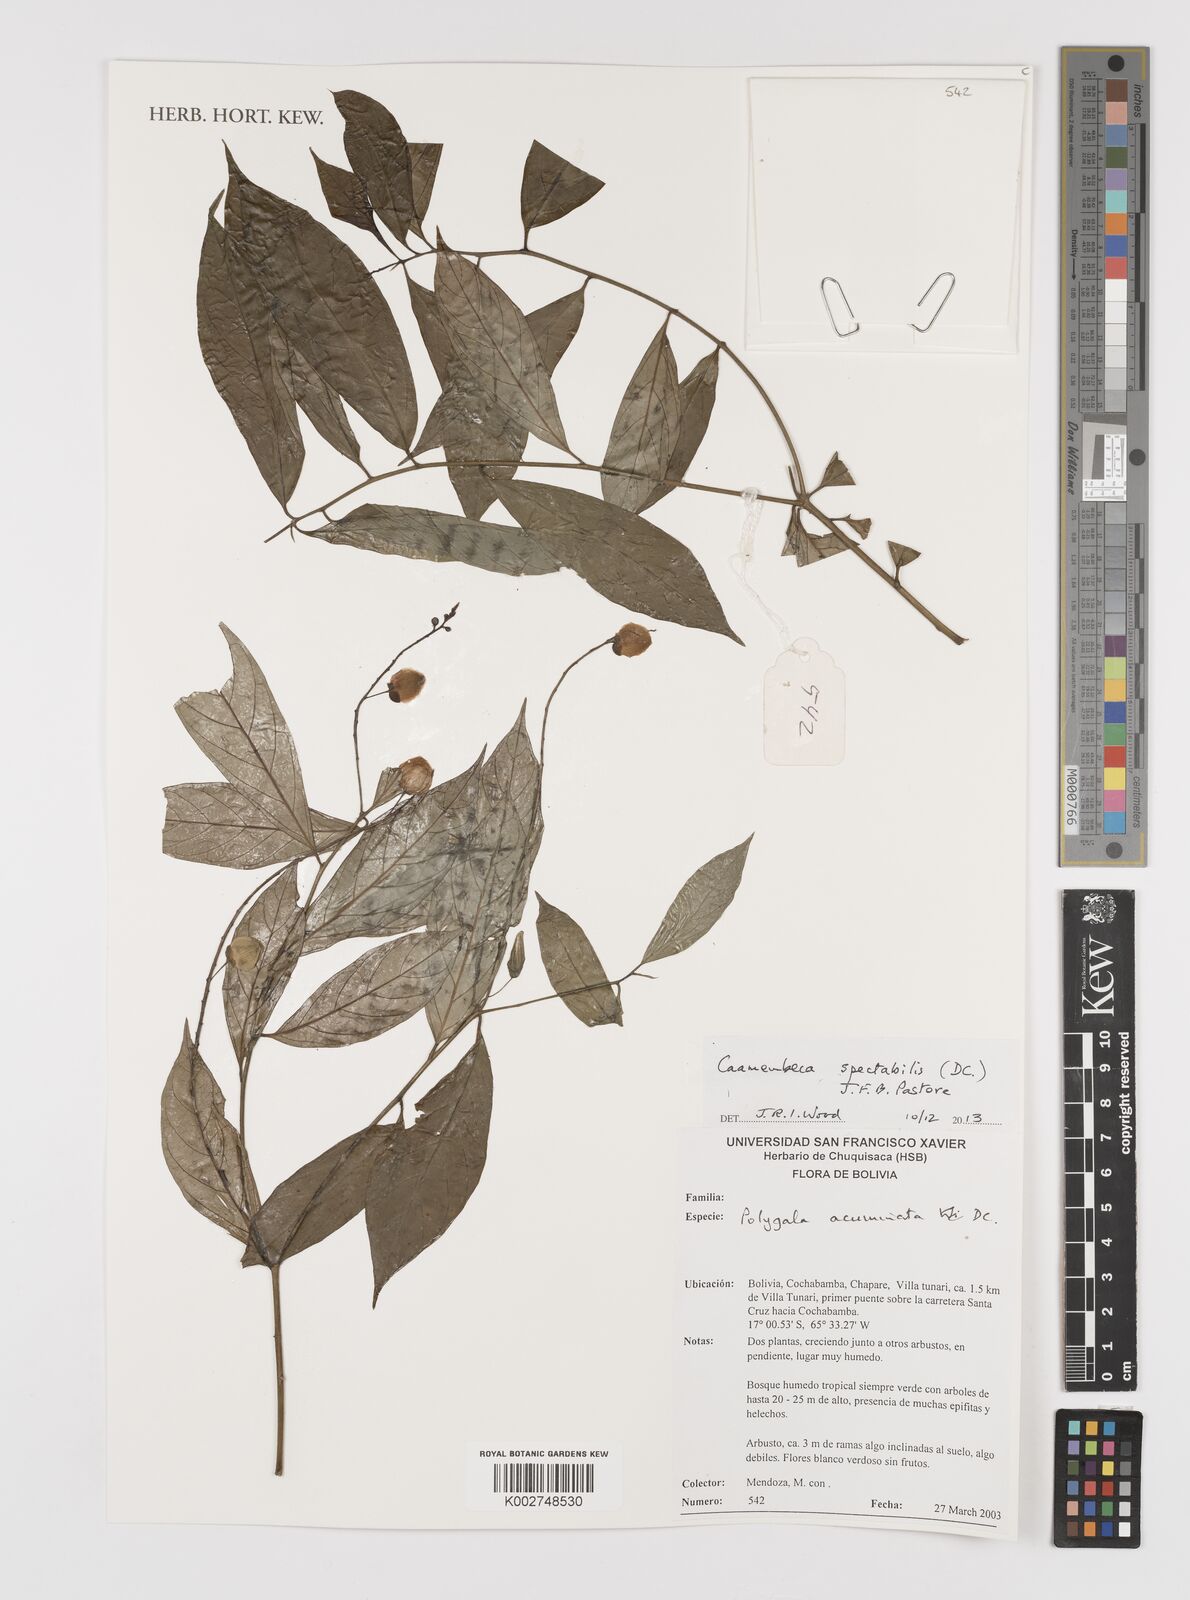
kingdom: Plantae
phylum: Tracheophyta
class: Magnoliopsida
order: Fabales
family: Polygalaceae
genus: Caamembeca
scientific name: Caamembeca spectabilis
